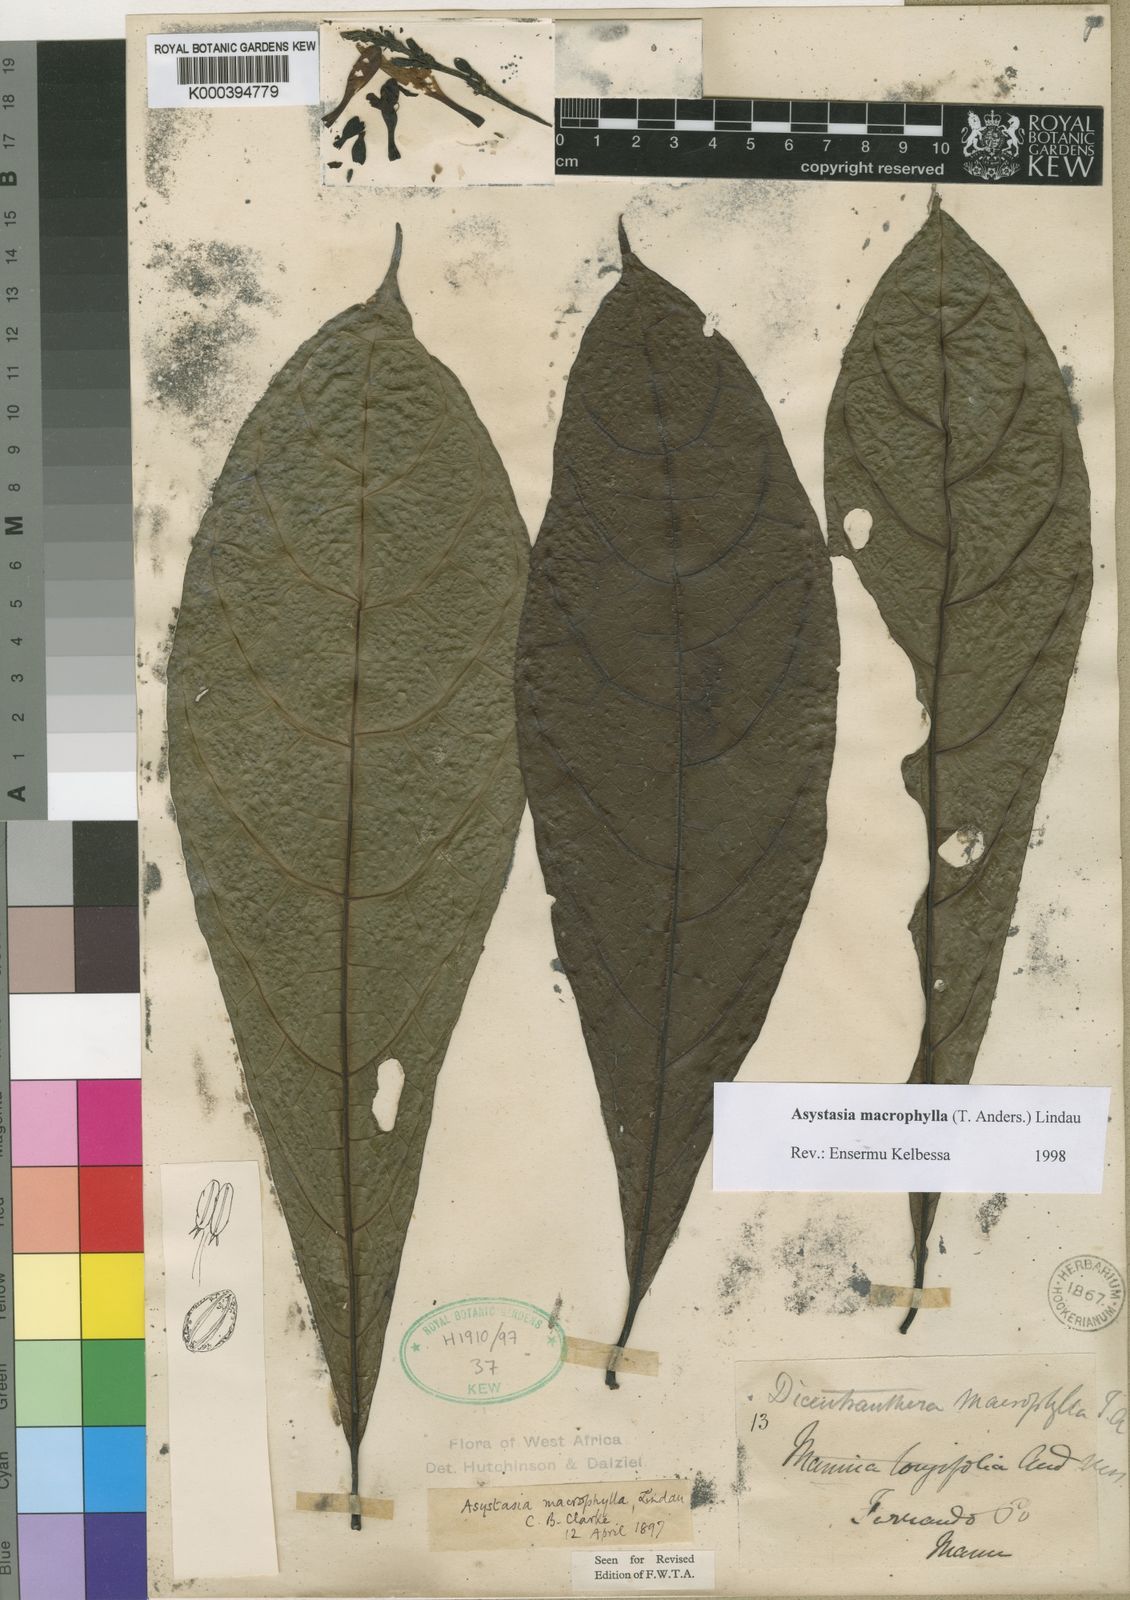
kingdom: Plantae
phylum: Tracheophyta
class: Magnoliopsida
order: Lamiales
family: Acanthaceae
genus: Asystasia
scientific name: Asystasia macrophylla
